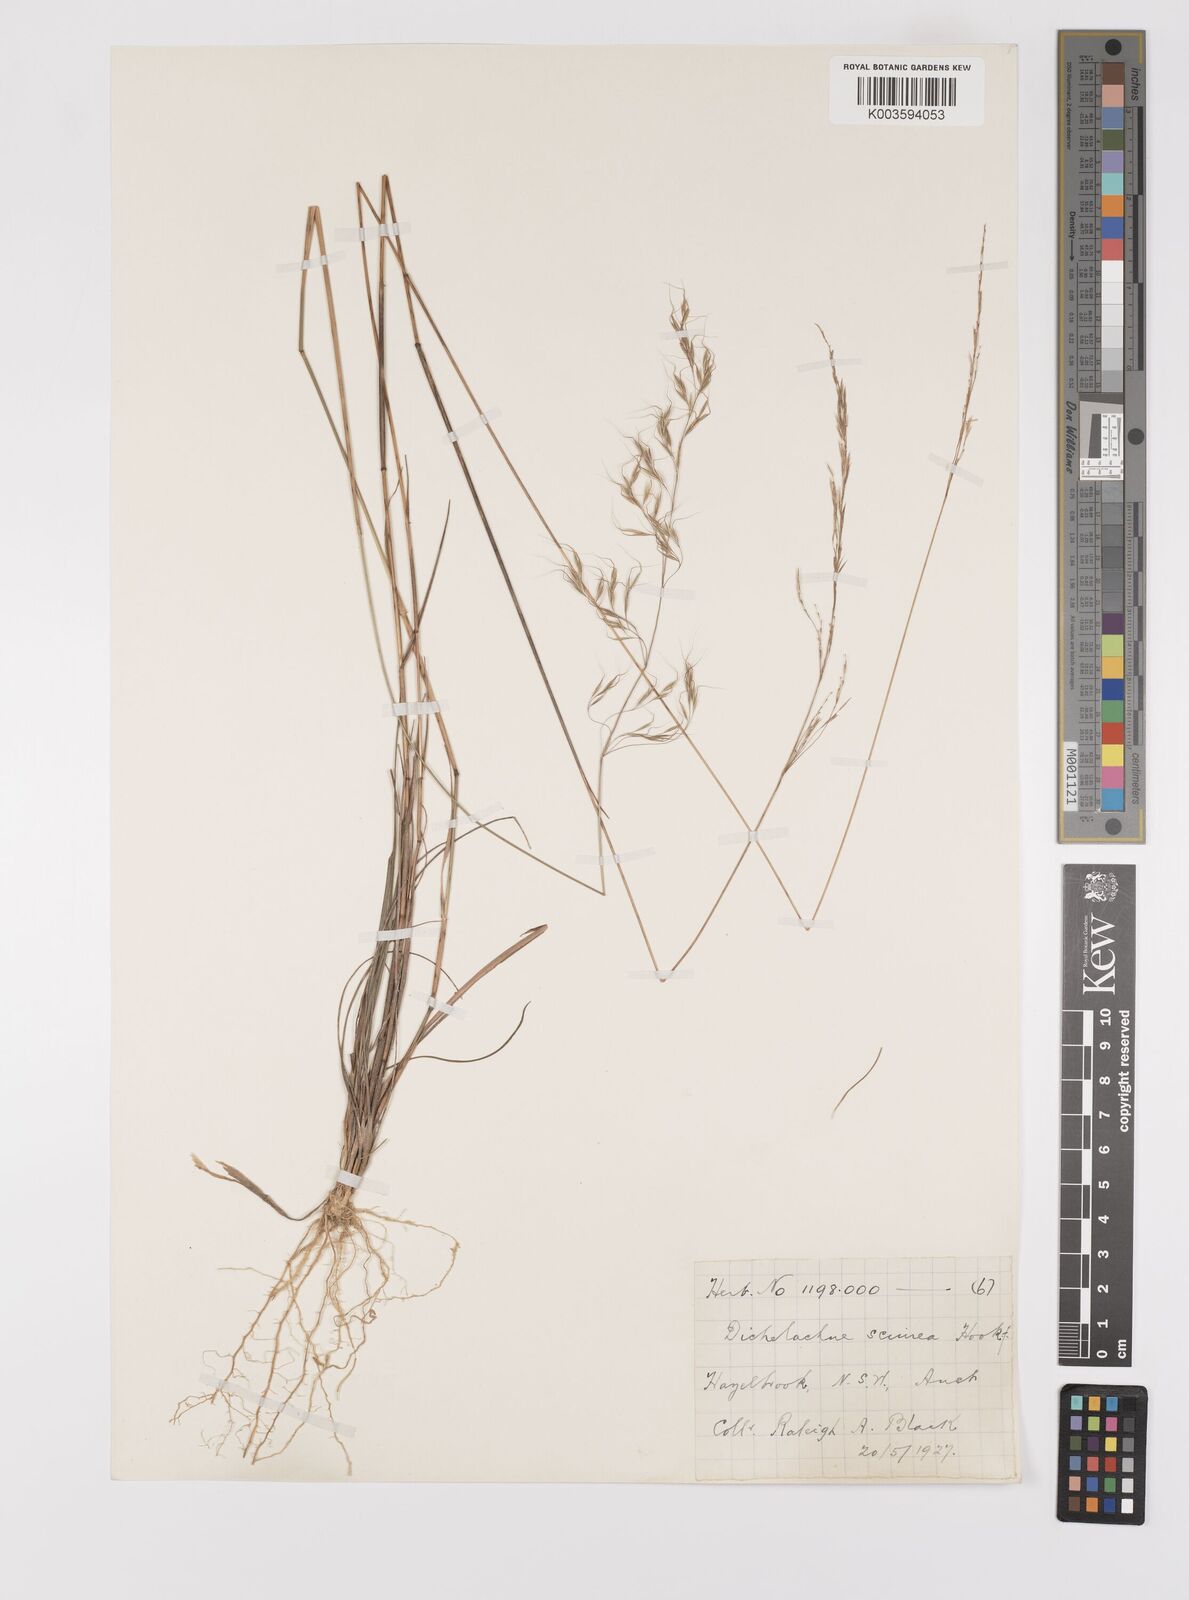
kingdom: Plantae
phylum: Tracheophyta
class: Liliopsida
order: Poales
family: Poaceae
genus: Dichelachne
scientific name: Dichelachne rara
